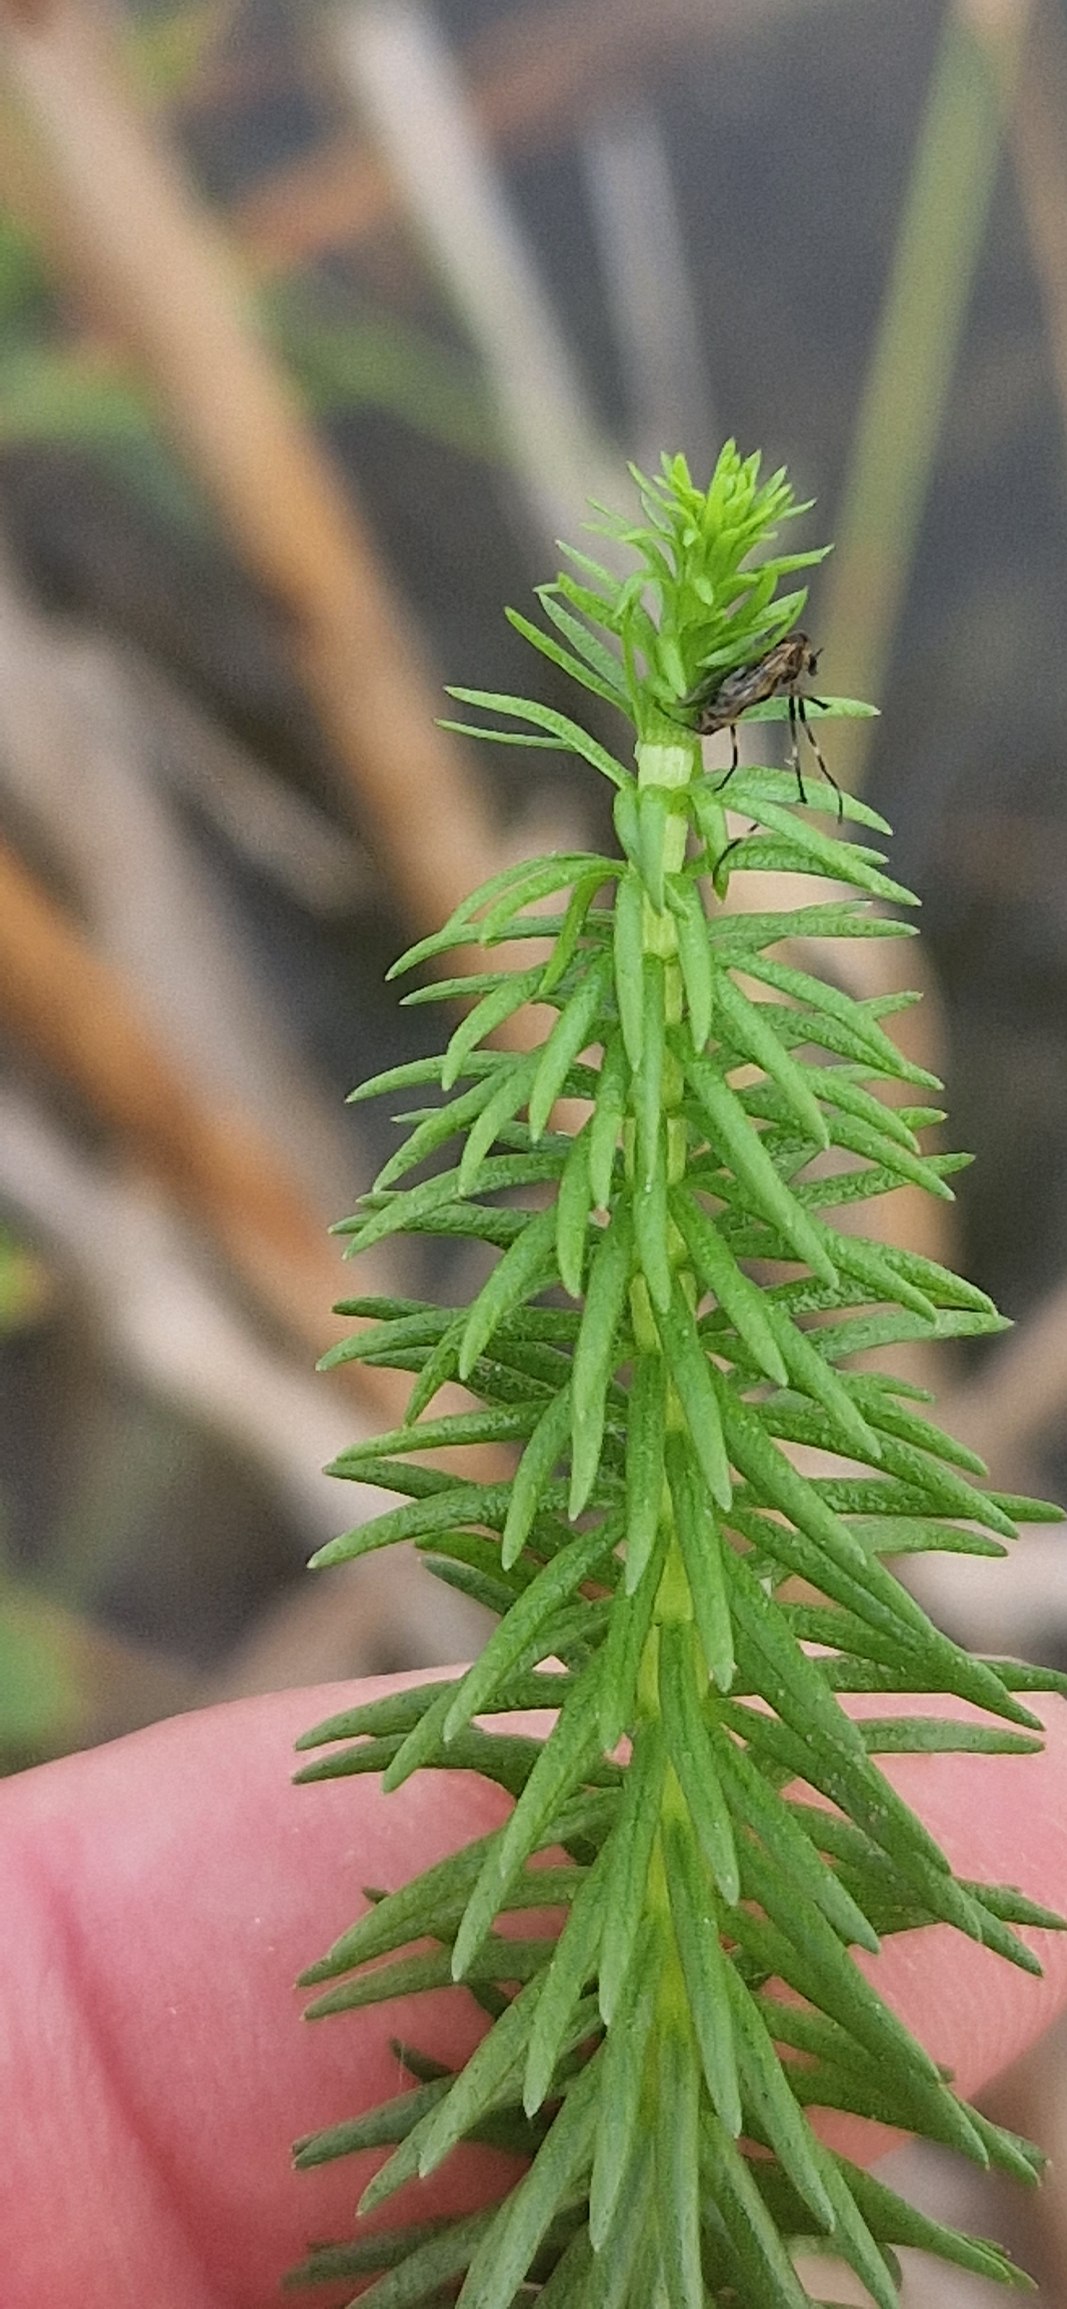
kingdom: Plantae
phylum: Tracheophyta
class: Magnoliopsida
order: Lamiales
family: Plantaginaceae
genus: Hippuris
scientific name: Hippuris vulgaris
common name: Vandspir
